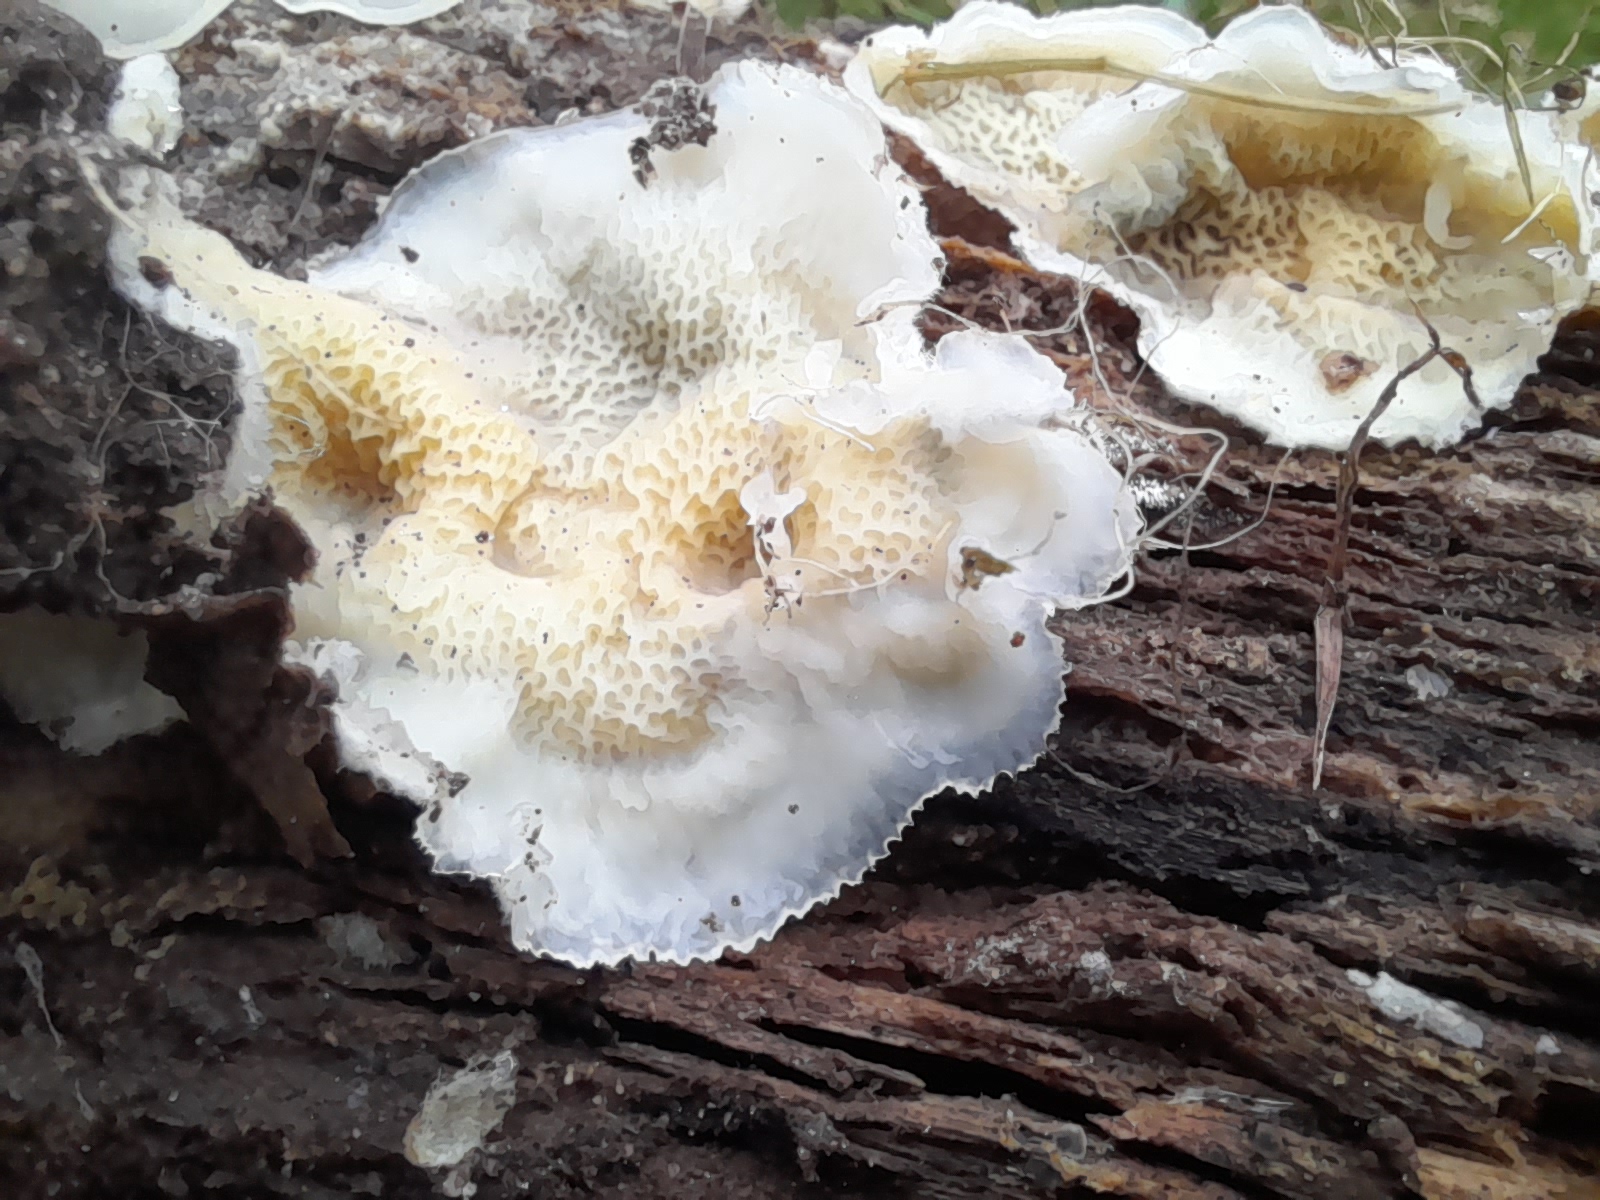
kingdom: Fungi
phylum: Basidiomycota
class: Agaricomycetes
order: Polyporales
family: Meruliaceae
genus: Phlebia
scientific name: Phlebia tremellosa
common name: bævrende åresvamp
